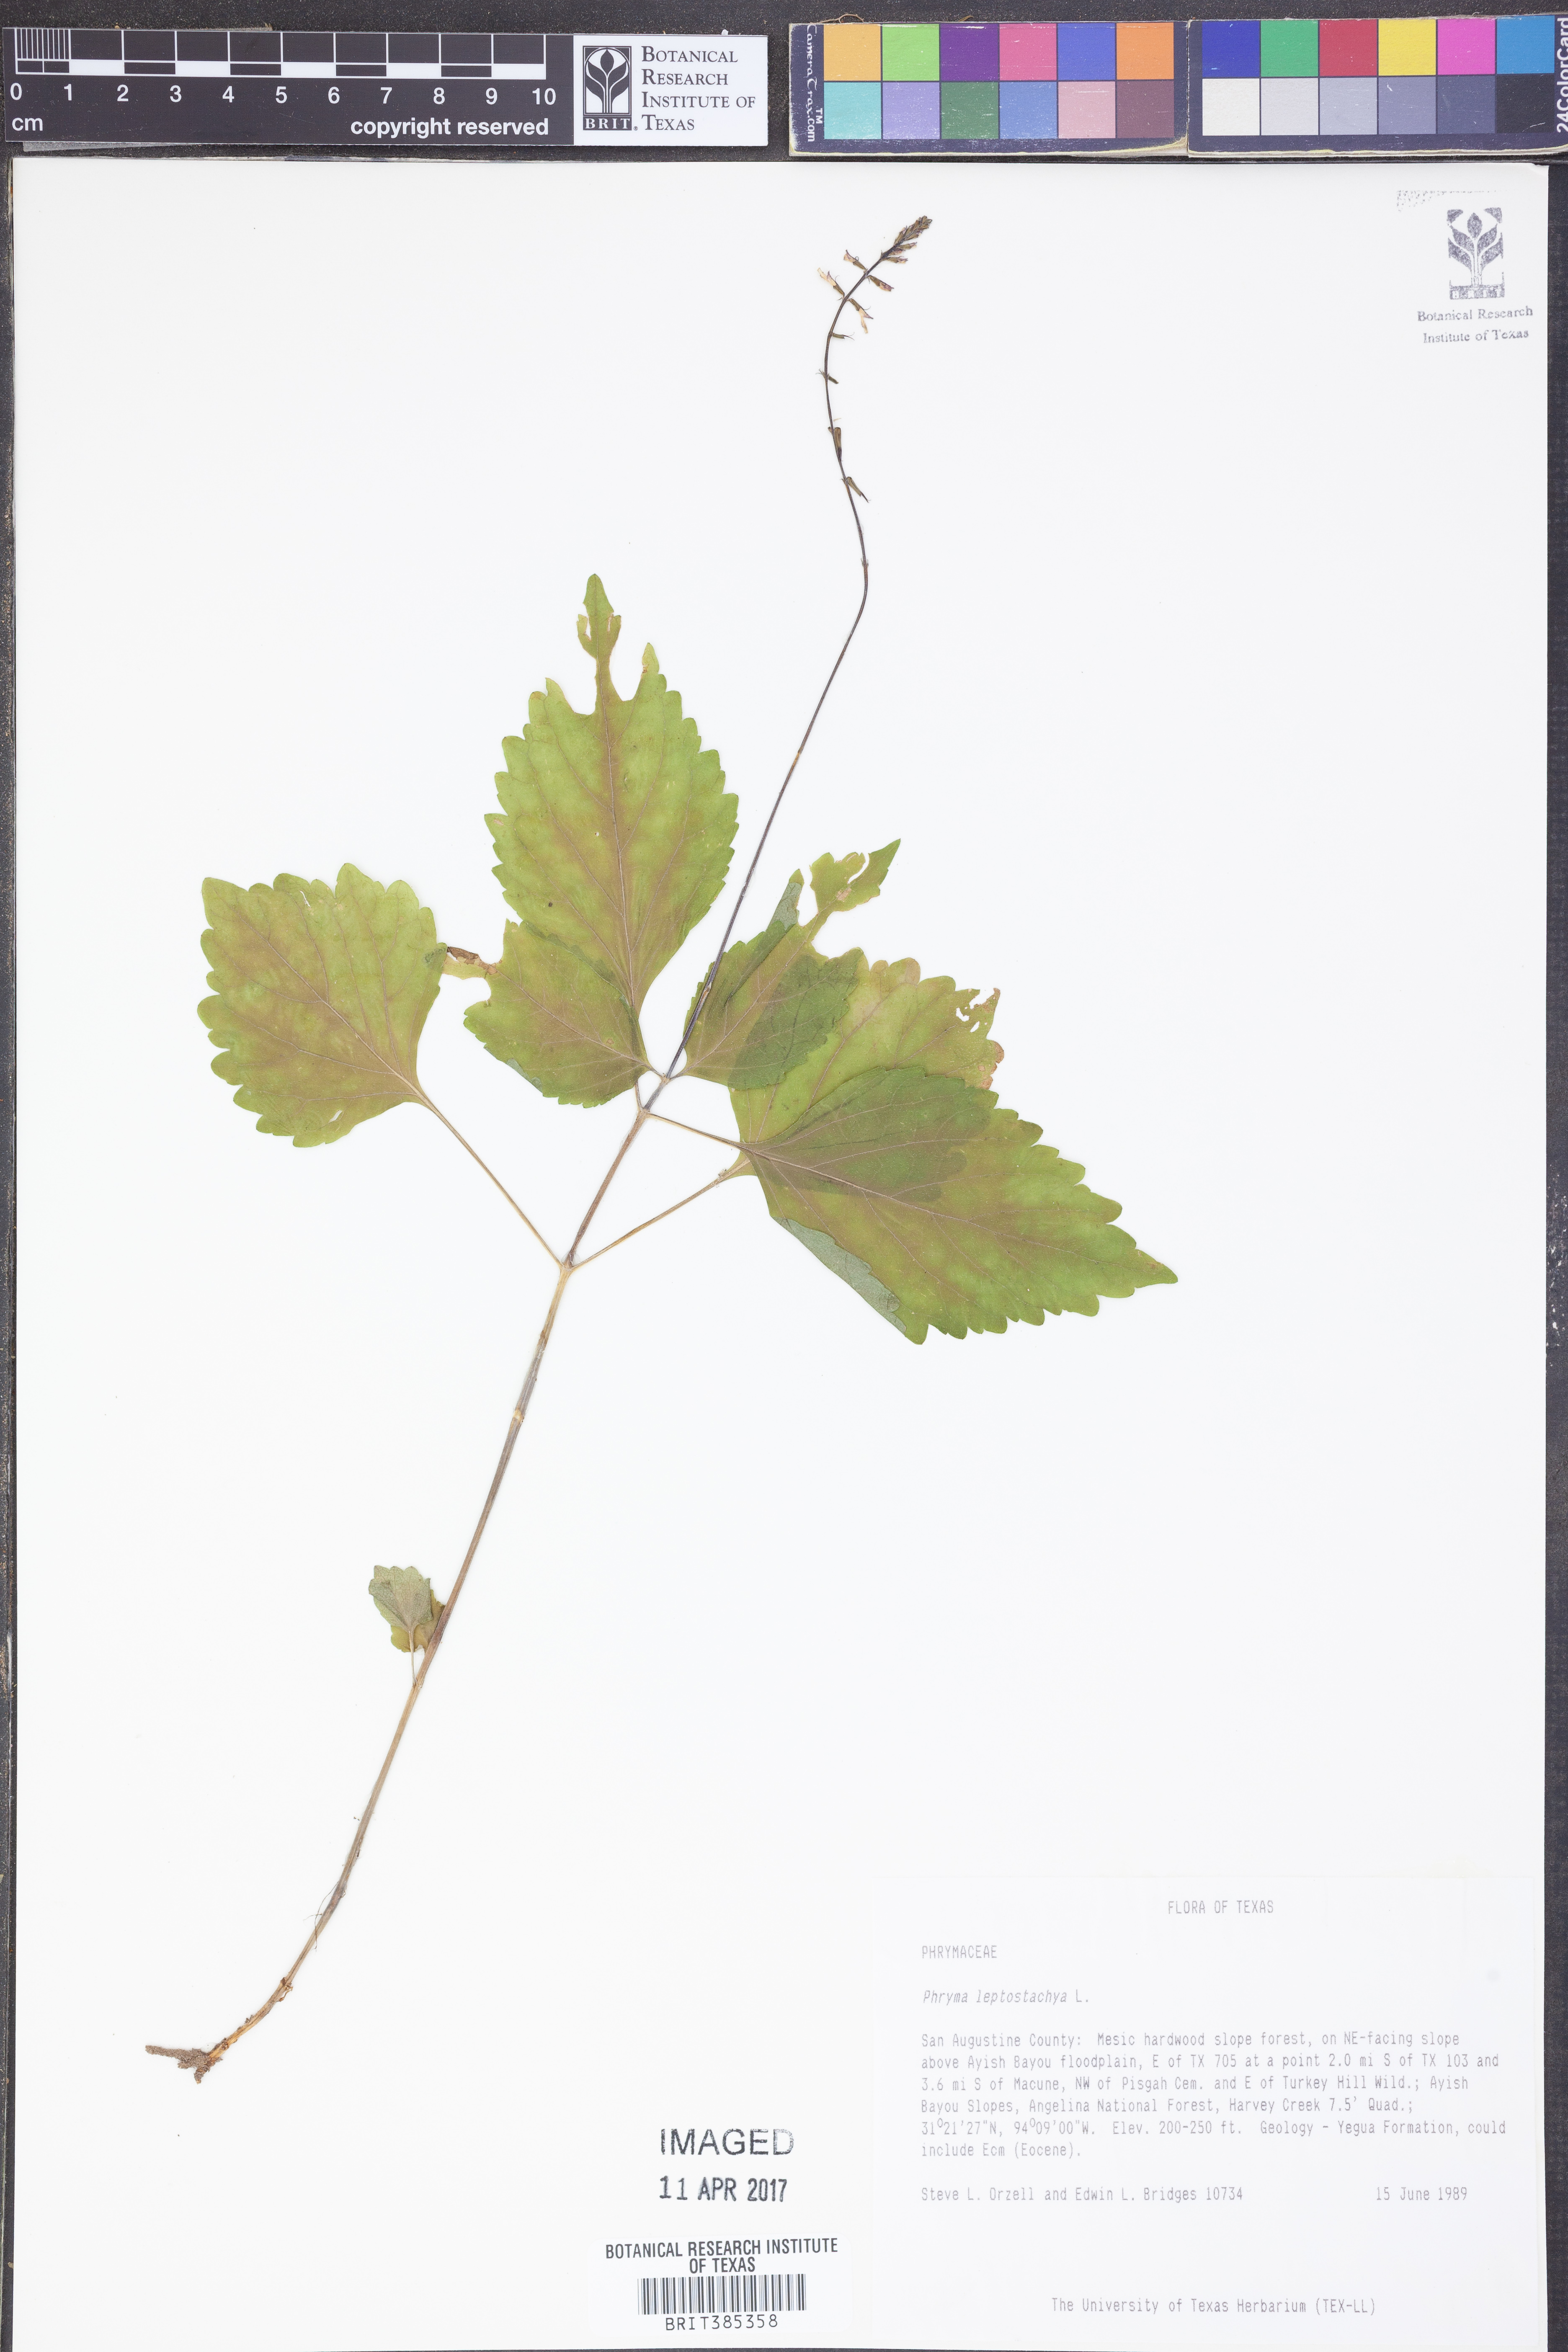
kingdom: Plantae
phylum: Tracheophyta
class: Magnoliopsida
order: Lamiales
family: Phrymaceae
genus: Phryma
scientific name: Phryma leptostachya
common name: American lopseed
